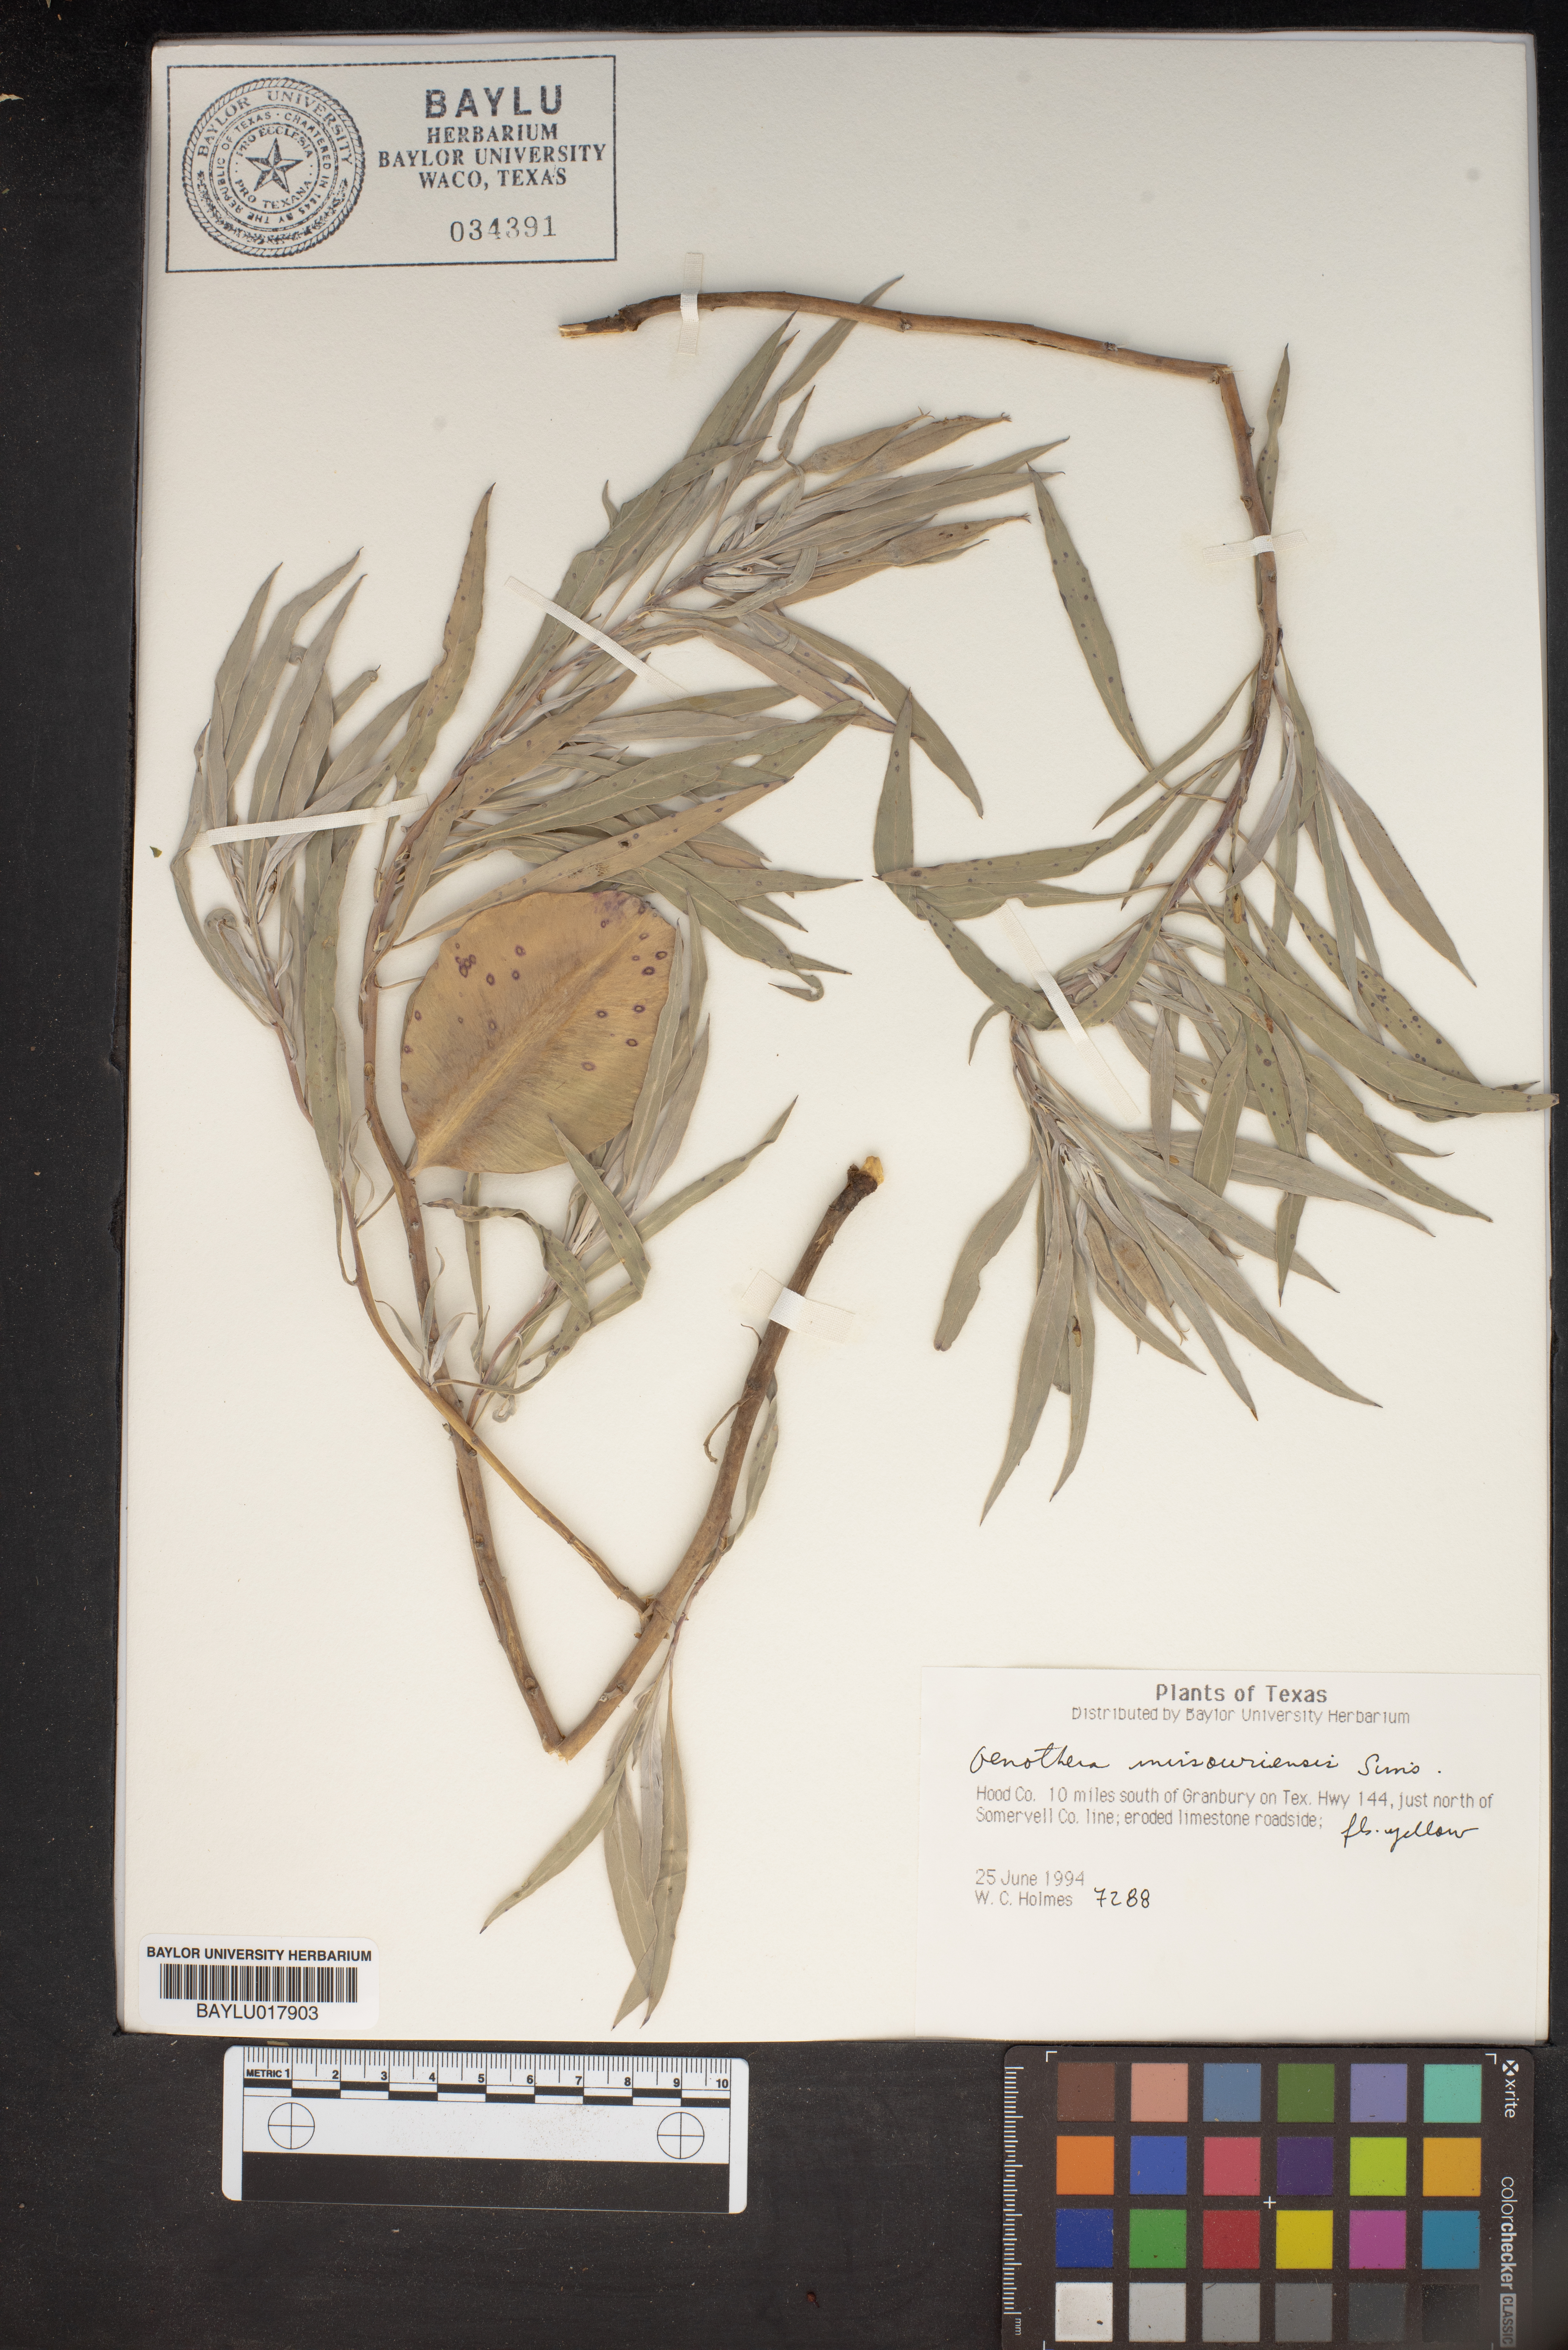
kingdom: Plantae
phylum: Tracheophyta
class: Magnoliopsida
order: Myrtales
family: Onagraceae
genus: Oenothera
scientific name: Oenothera macrocarpa
